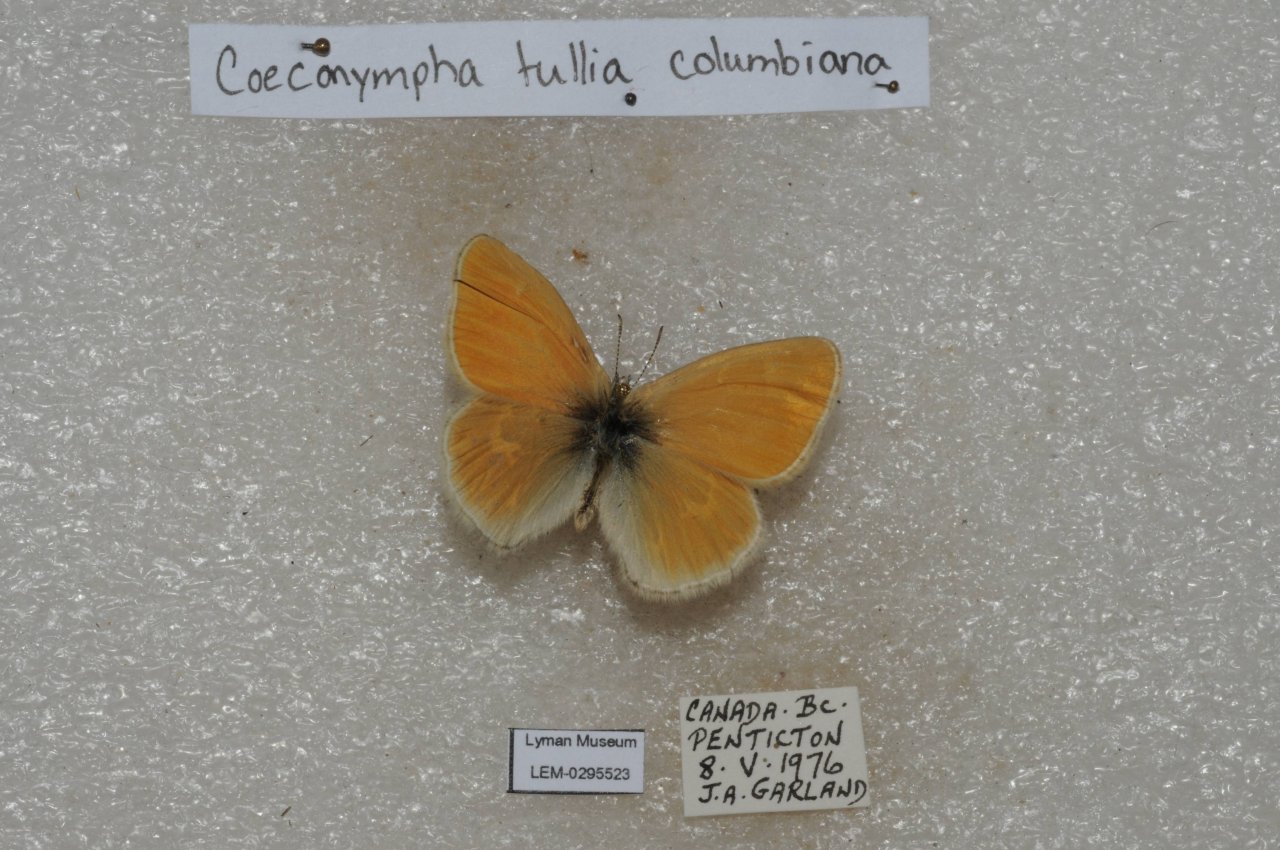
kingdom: Animalia
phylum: Arthropoda
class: Insecta
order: Lepidoptera
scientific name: Lepidoptera
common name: Butterflies
